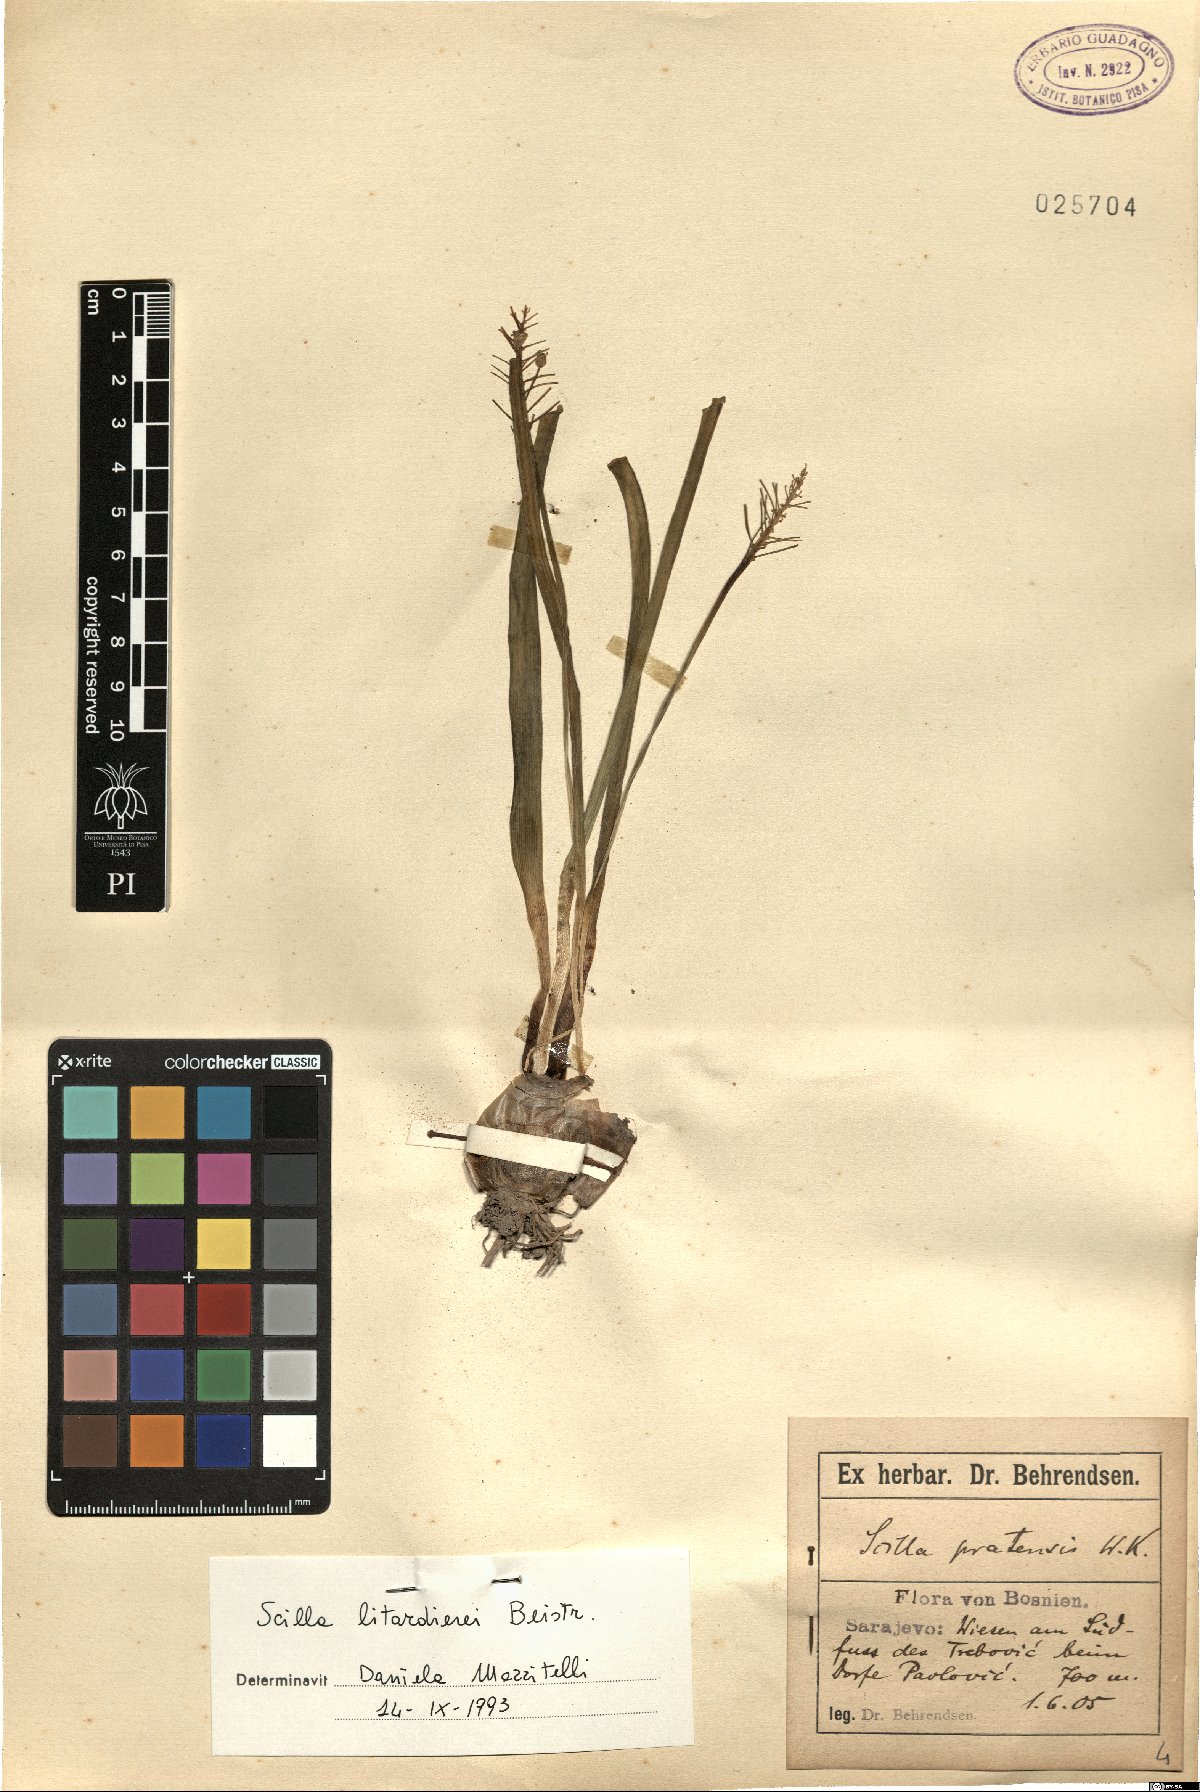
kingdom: Plantae
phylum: Tracheophyta
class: Liliopsida
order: Asparagales
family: Asparagaceae
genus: Scilla
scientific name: Scilla litardierei
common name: Amethyst meadow squill
